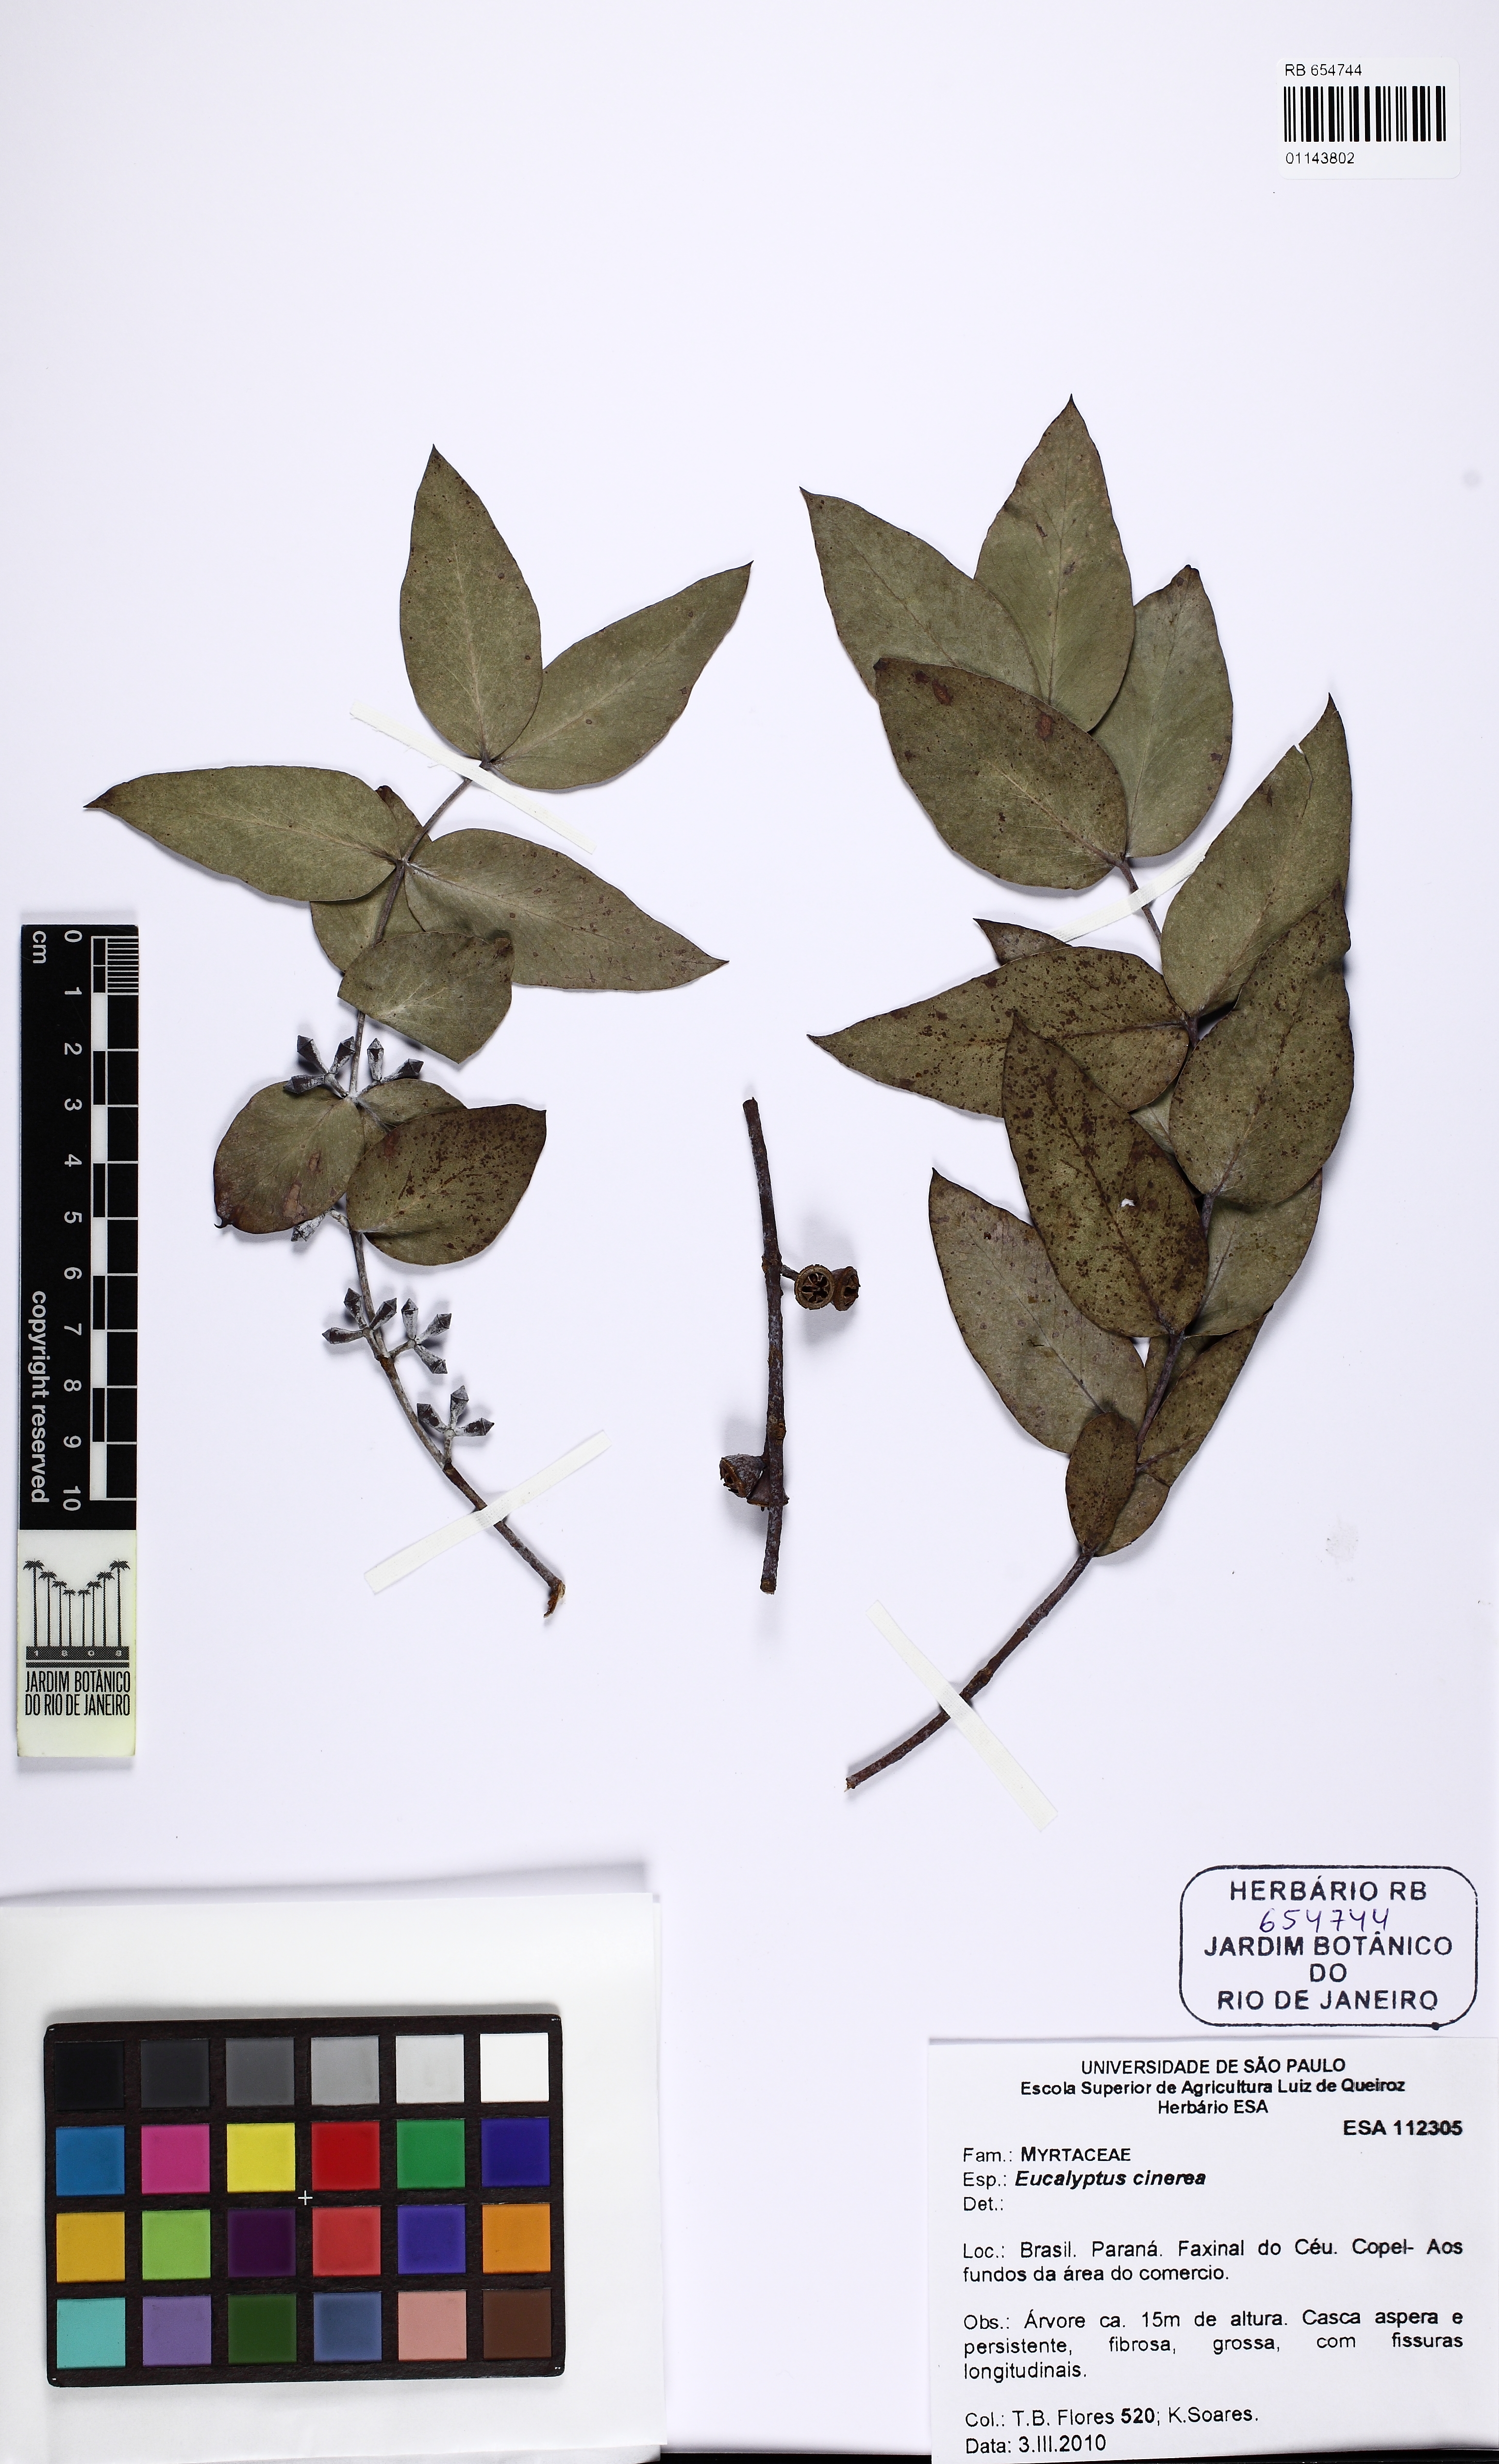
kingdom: Plantae
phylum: Tracheophyta
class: Magnoliopsida
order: Myrtales
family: Myrtaceae
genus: Eucalyptus
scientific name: Eucalyptus cinerea
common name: Argyle apple
